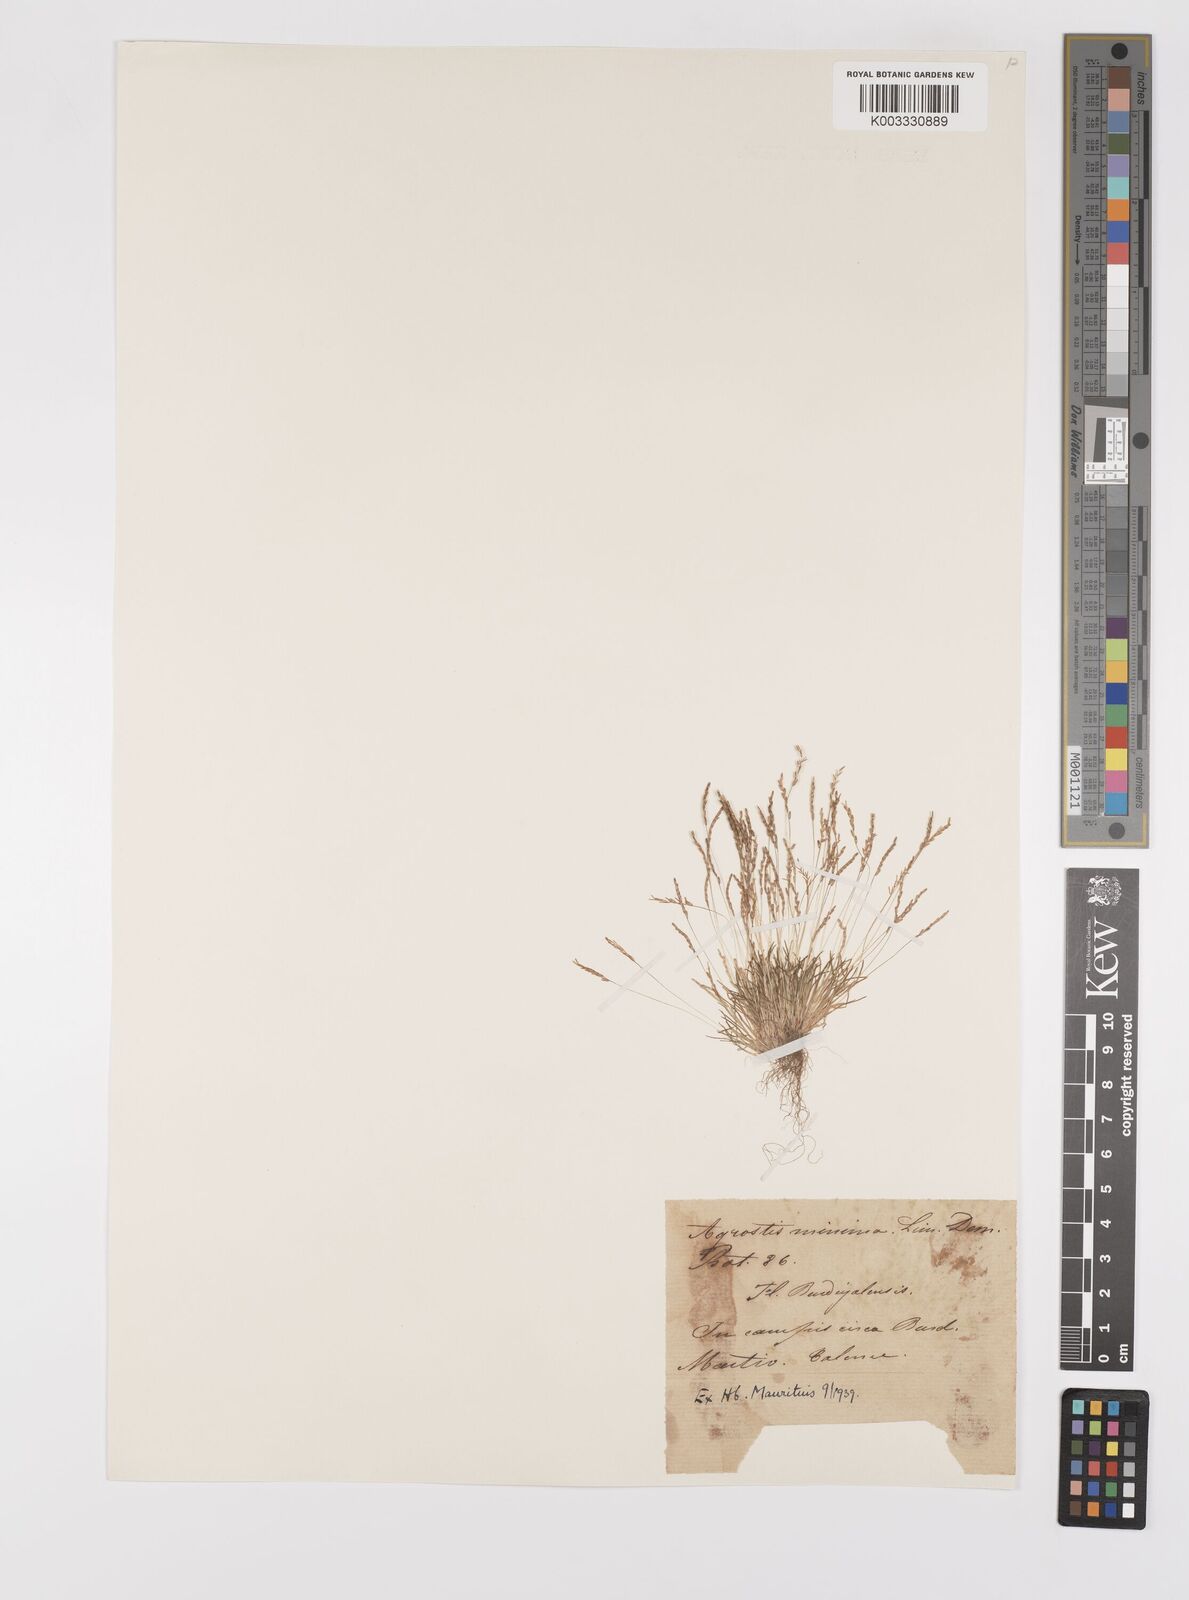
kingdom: Plantae
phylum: Tracheophyta
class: Liliopsida
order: Poales
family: Poaceae
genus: Mibora
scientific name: Mibora minima
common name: Early sand-grass
